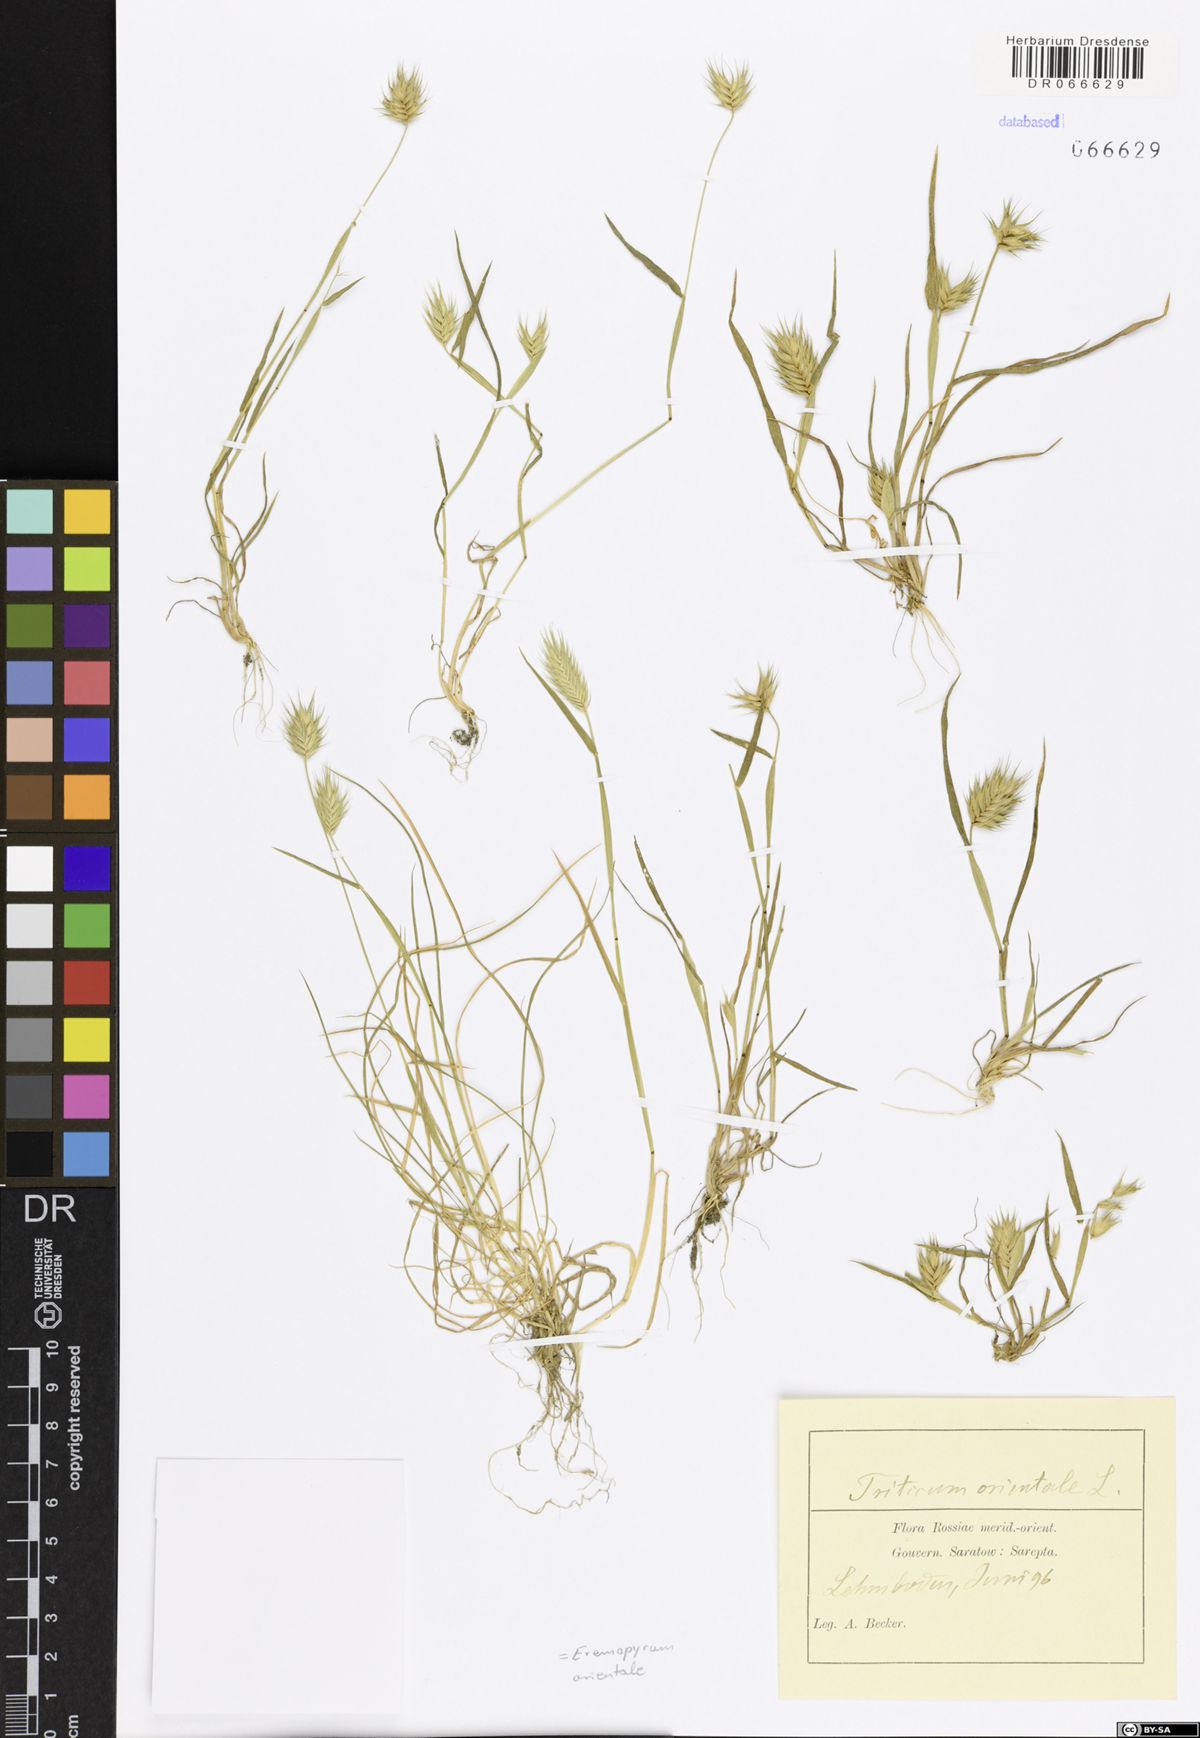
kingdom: Plantae
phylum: Tracheophyta
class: Liliopsida
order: Poales
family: Poaceae
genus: Eremopyrum
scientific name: Eremopyrum orientale
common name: Oriental false wheatgrass
